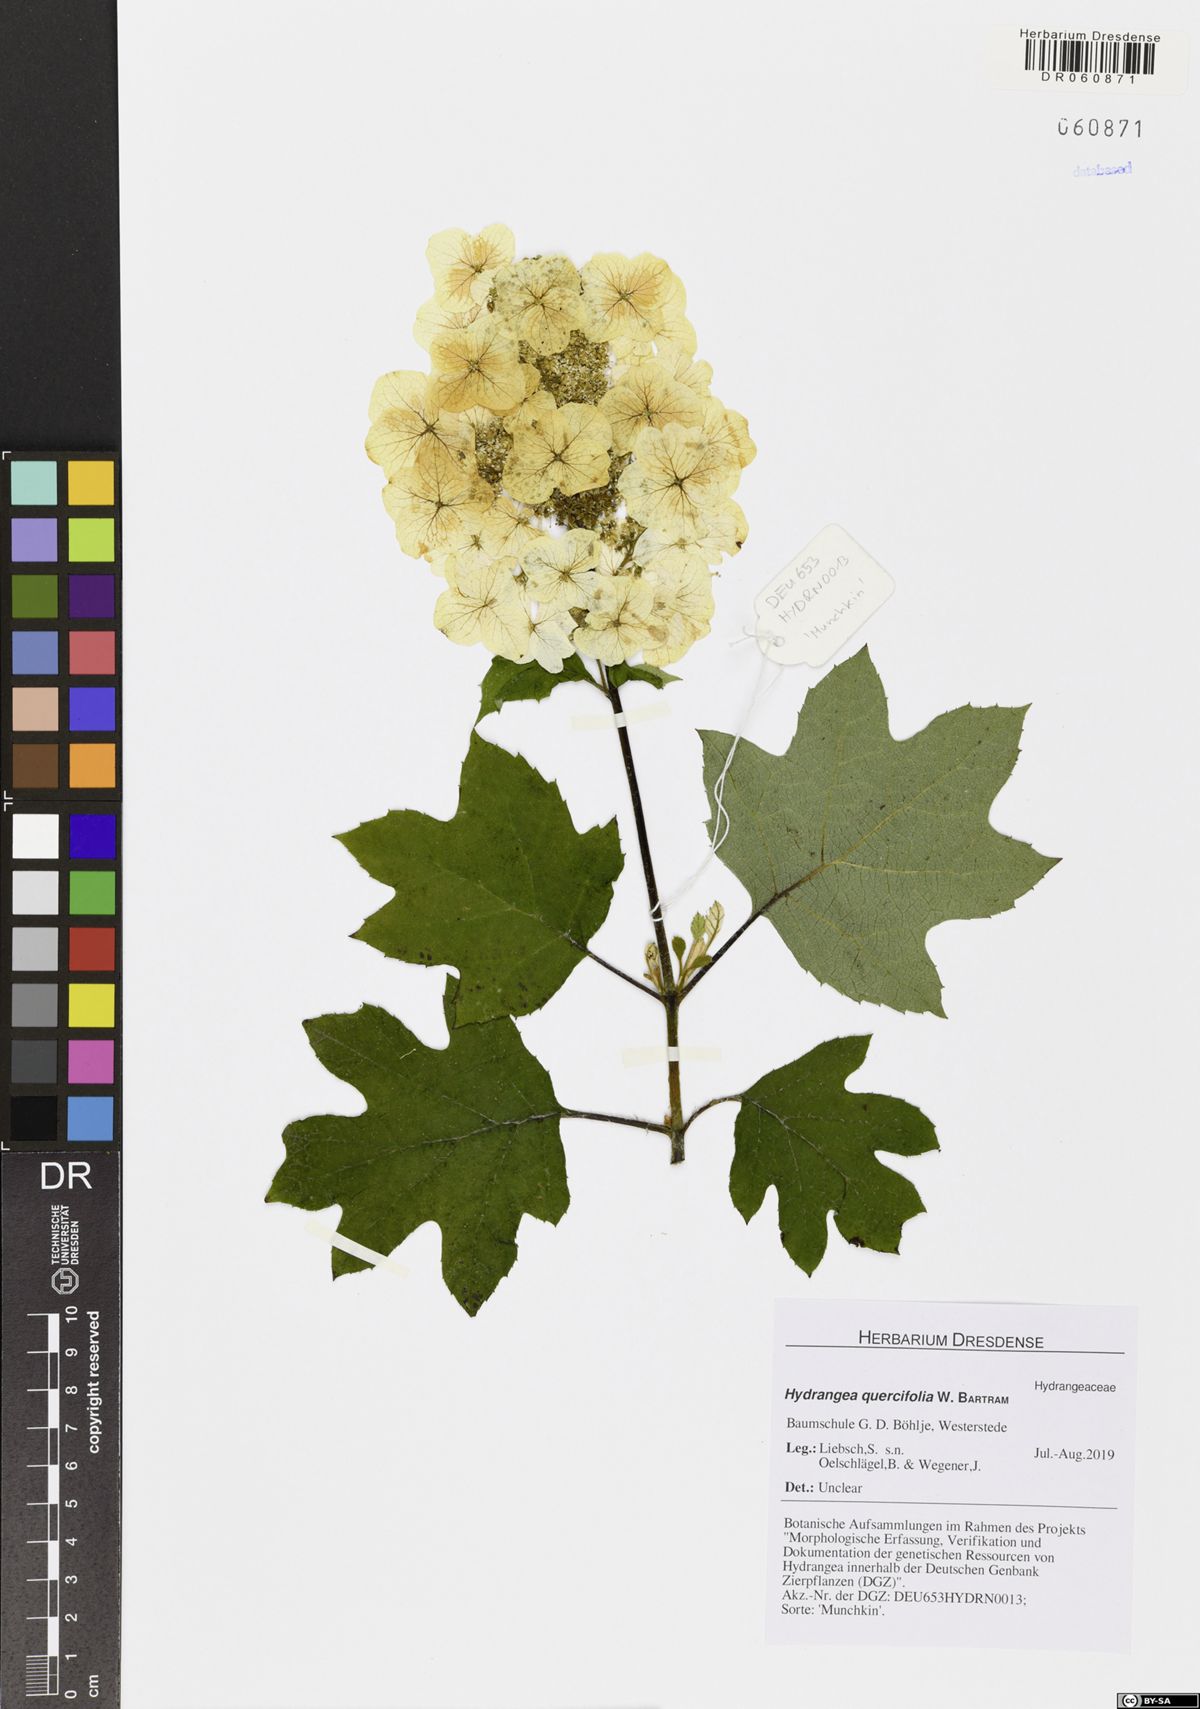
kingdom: Plantae
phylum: Tracheophyta
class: Magnoliopsida
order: Cornales
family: Hydrangeaceae
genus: Hydrangea
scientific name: Hydrangea quercifolia
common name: Oak-leaf hydrangea
